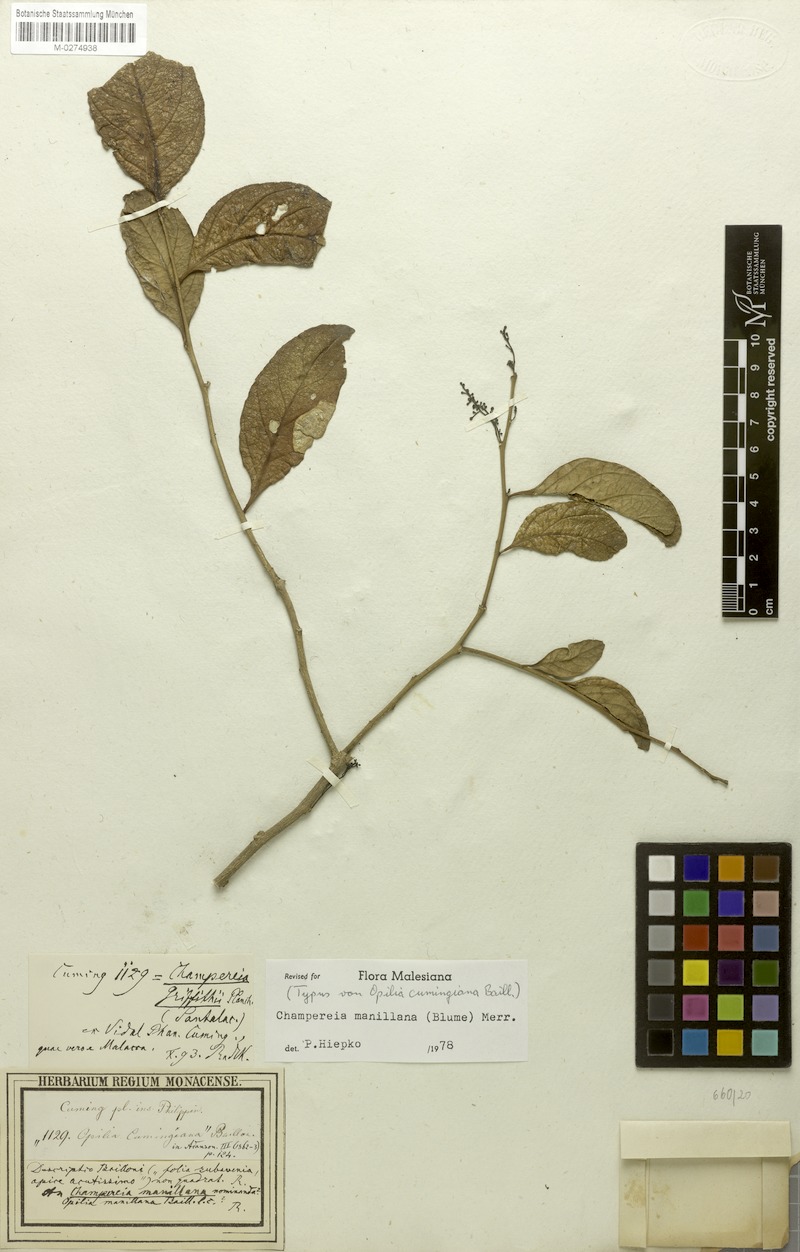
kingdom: Plantae
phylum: Tracheophyta
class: Magnoliopsida
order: Santalales
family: Opiliaceae
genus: Champereia
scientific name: Champereia manillana
